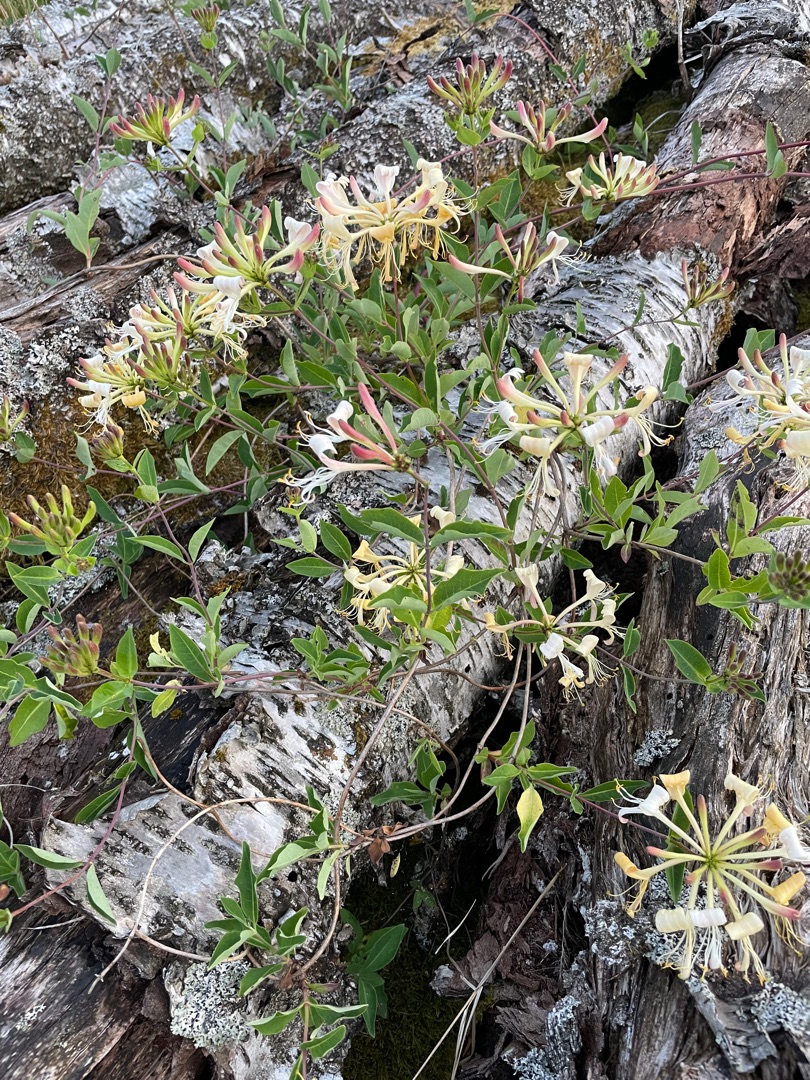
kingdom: Plantae
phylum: Tracheophyta
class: Magnoliopsida
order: Dipsacales
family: Caprifoliaceae
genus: Lonicera
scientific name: Lonicera periclymenum
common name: Almindelig gedeblad
